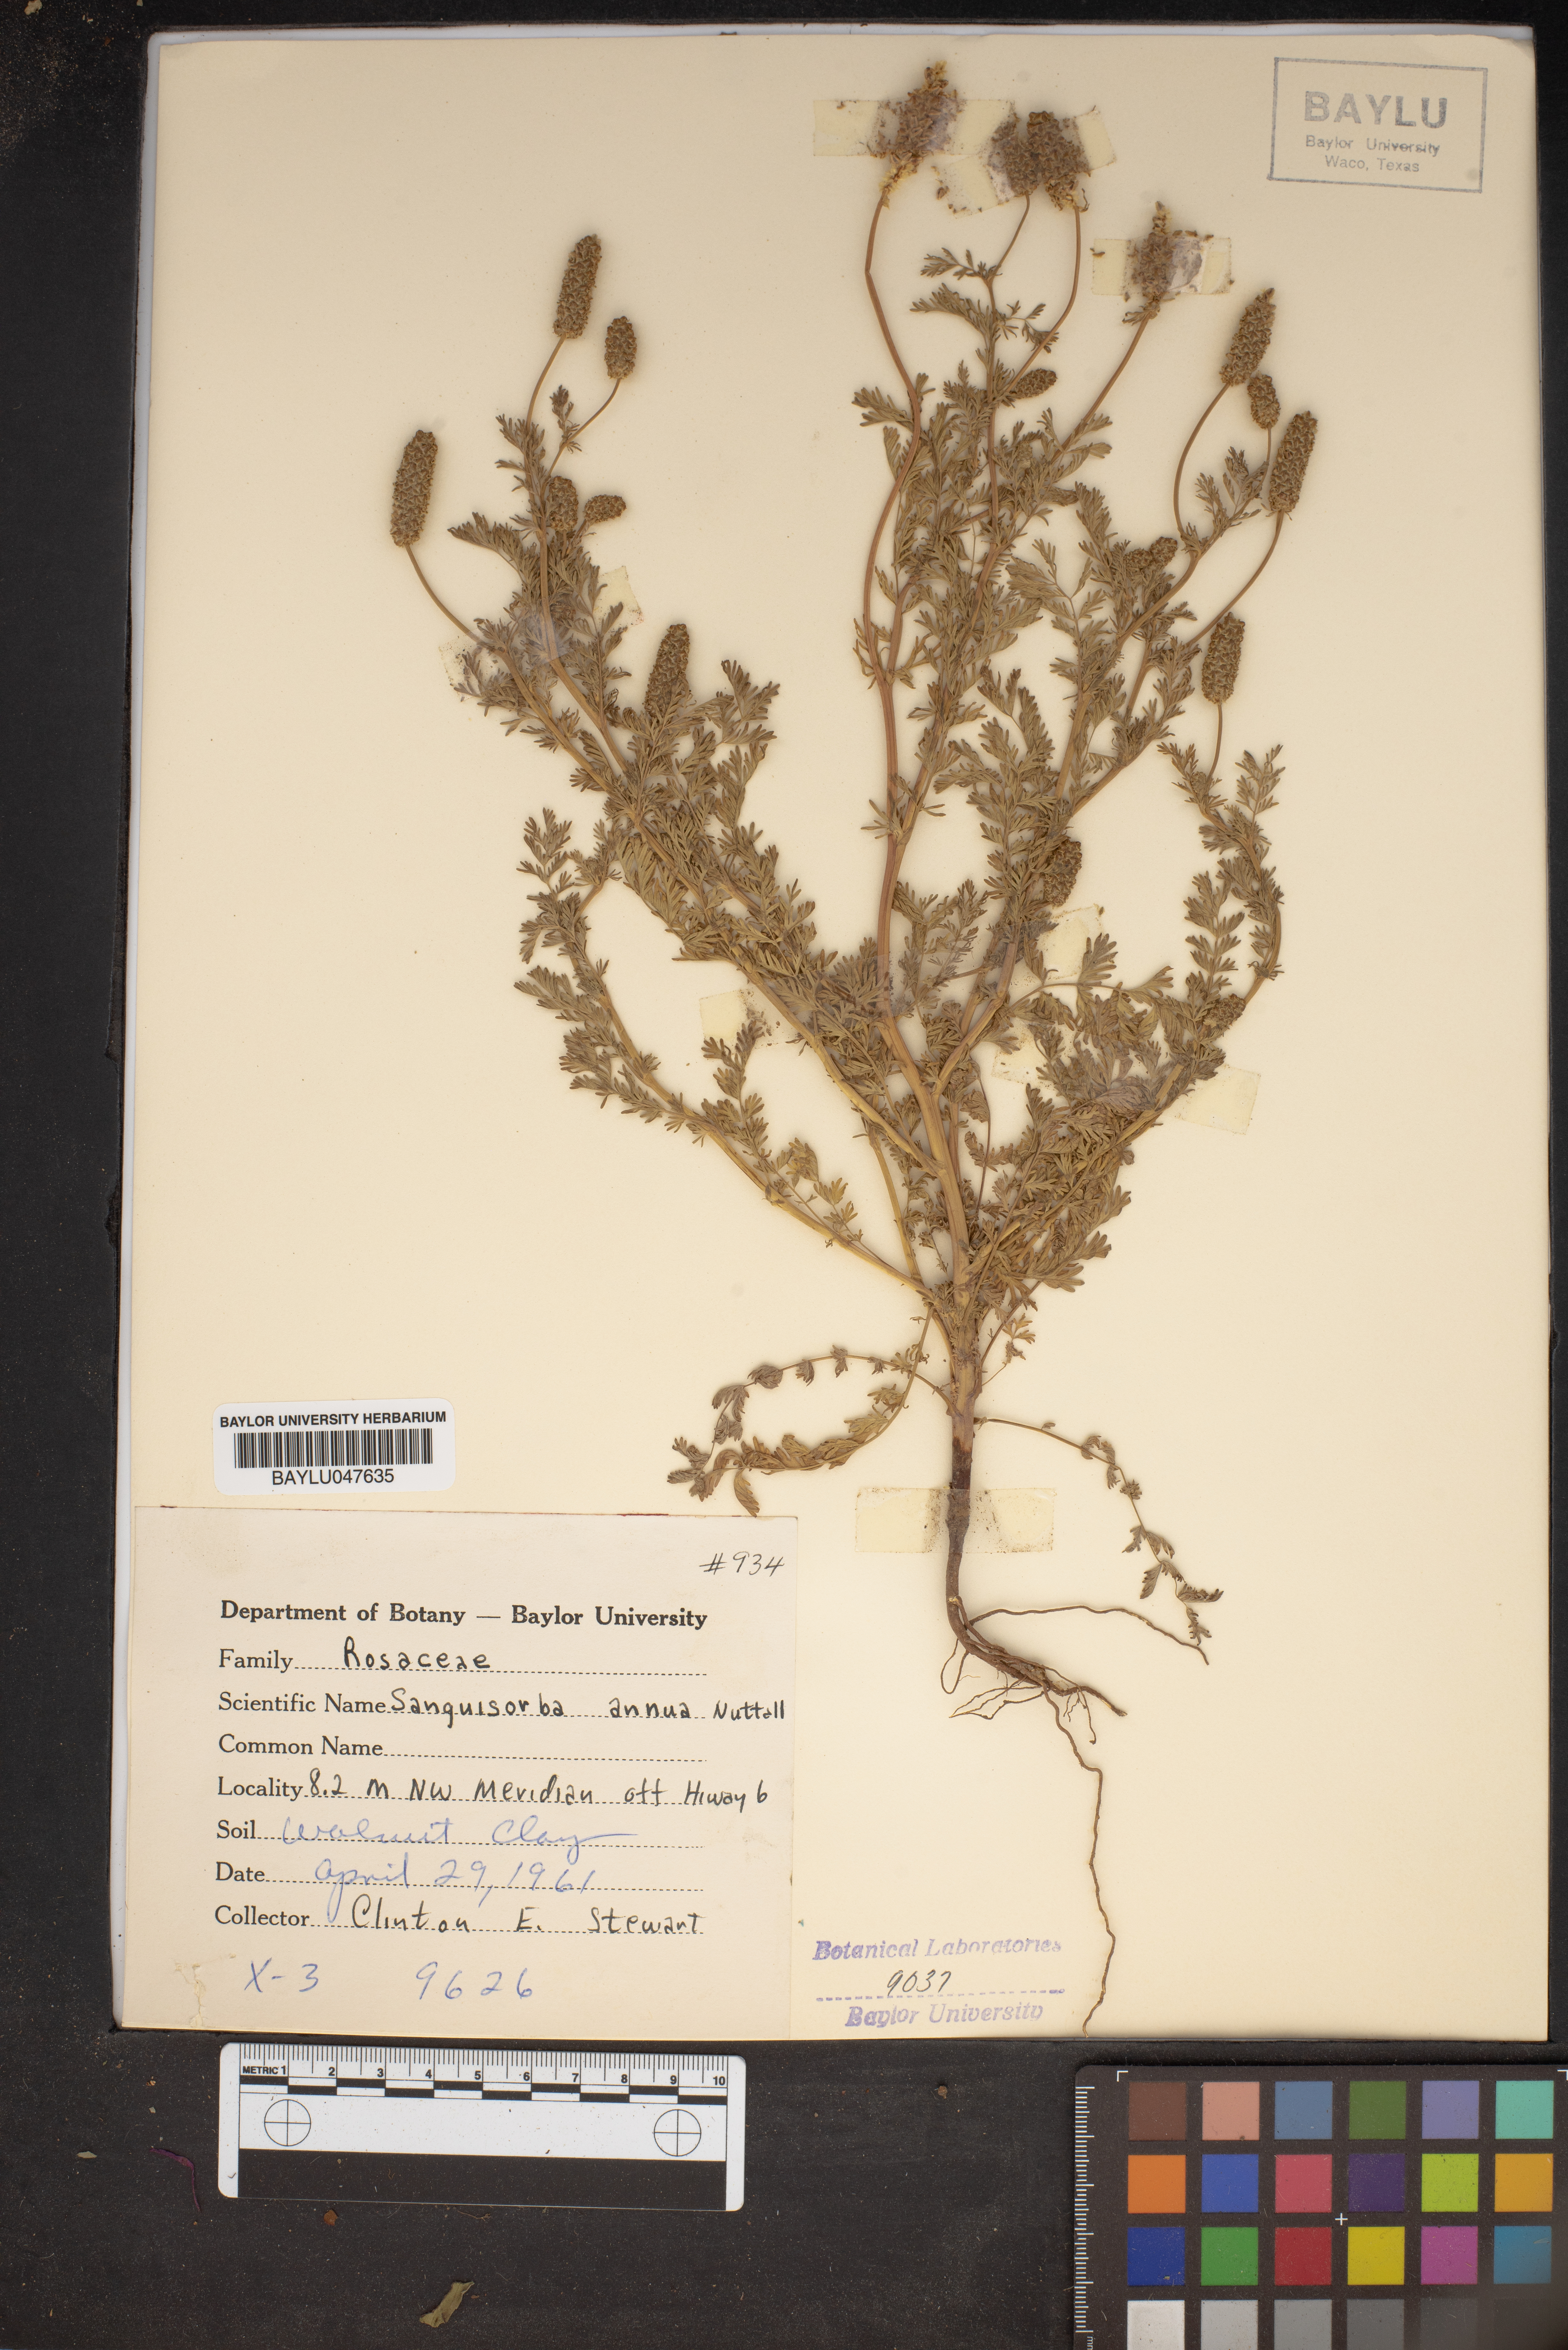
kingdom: Plantae
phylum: Tracheophyta
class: Magnoliopsida
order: Rosales
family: Rosaceae
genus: Poteridium
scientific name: Poteridium annuum
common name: Annual burnet
